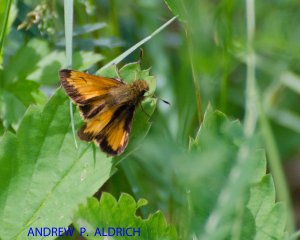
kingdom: Animalia
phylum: Arthropoda
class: Insecta
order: Lepidoptera
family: Hesperiidae
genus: Lon
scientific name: Lon hobomok
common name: Hobomok Skipper
